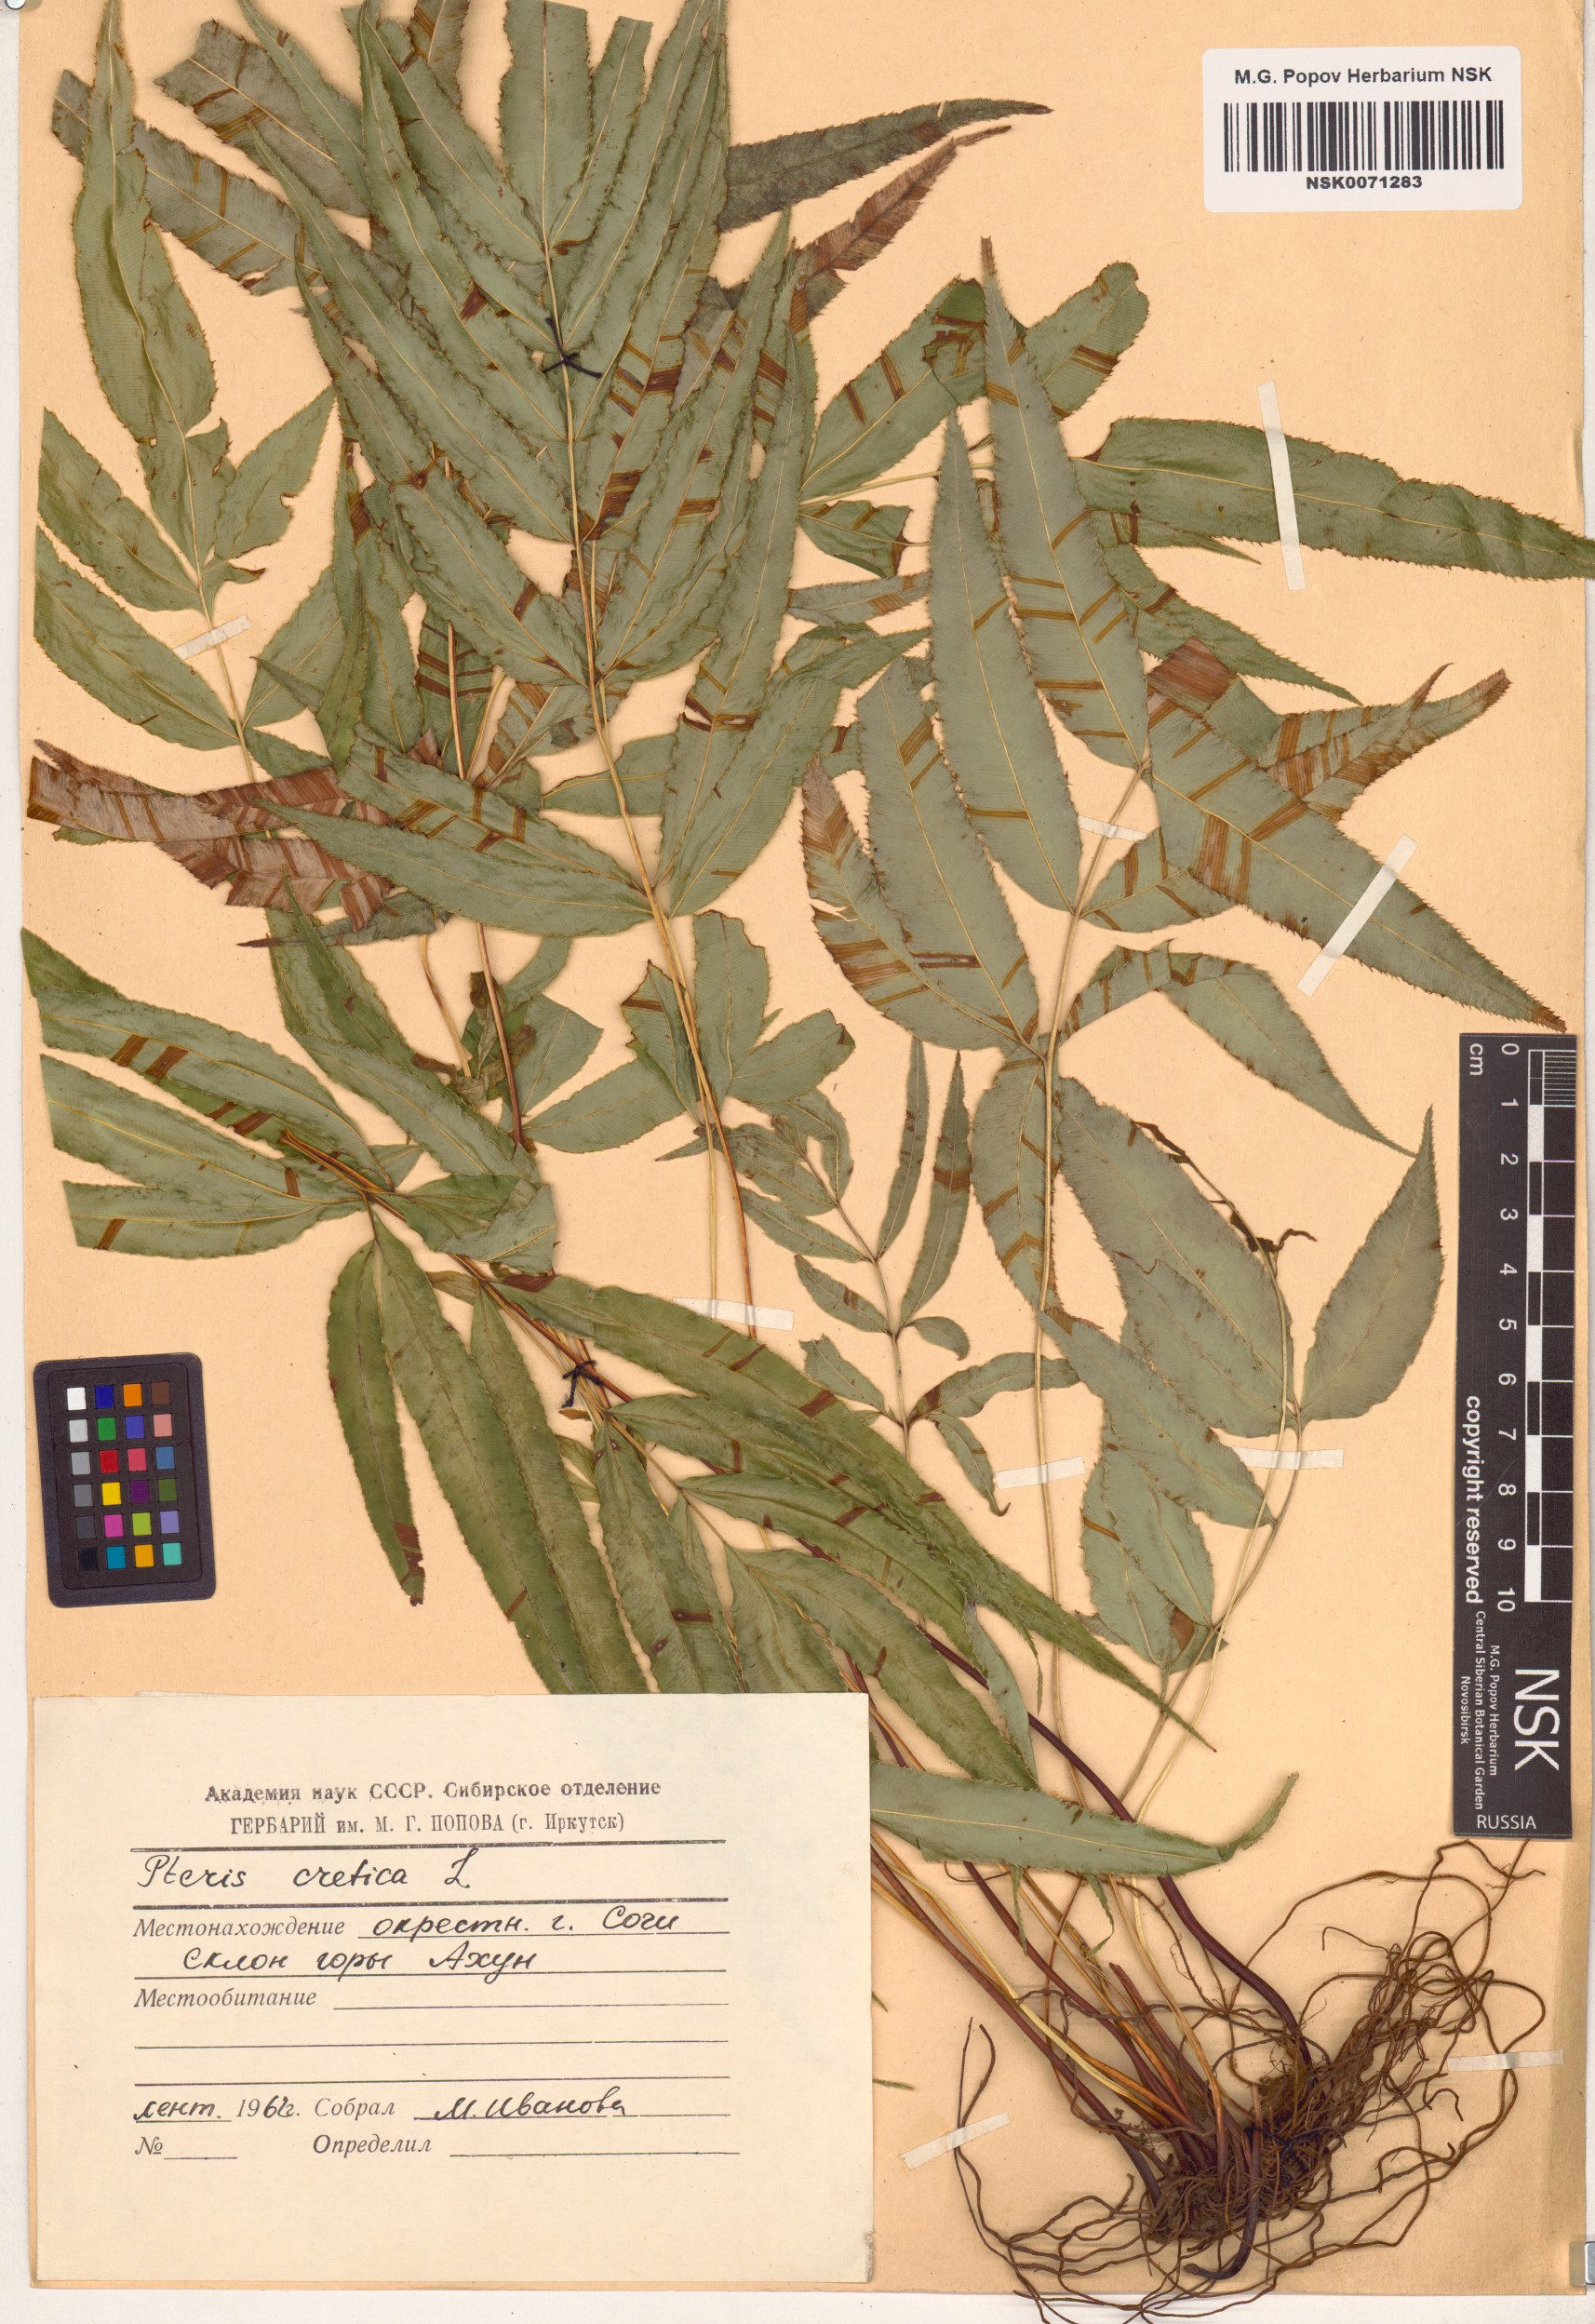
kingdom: Plantae
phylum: Tracheophyta
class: Polypodiopsida
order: Polypodiales
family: Pteridaceae
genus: Pteris
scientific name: Pteris cretica
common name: Ribbon fern
